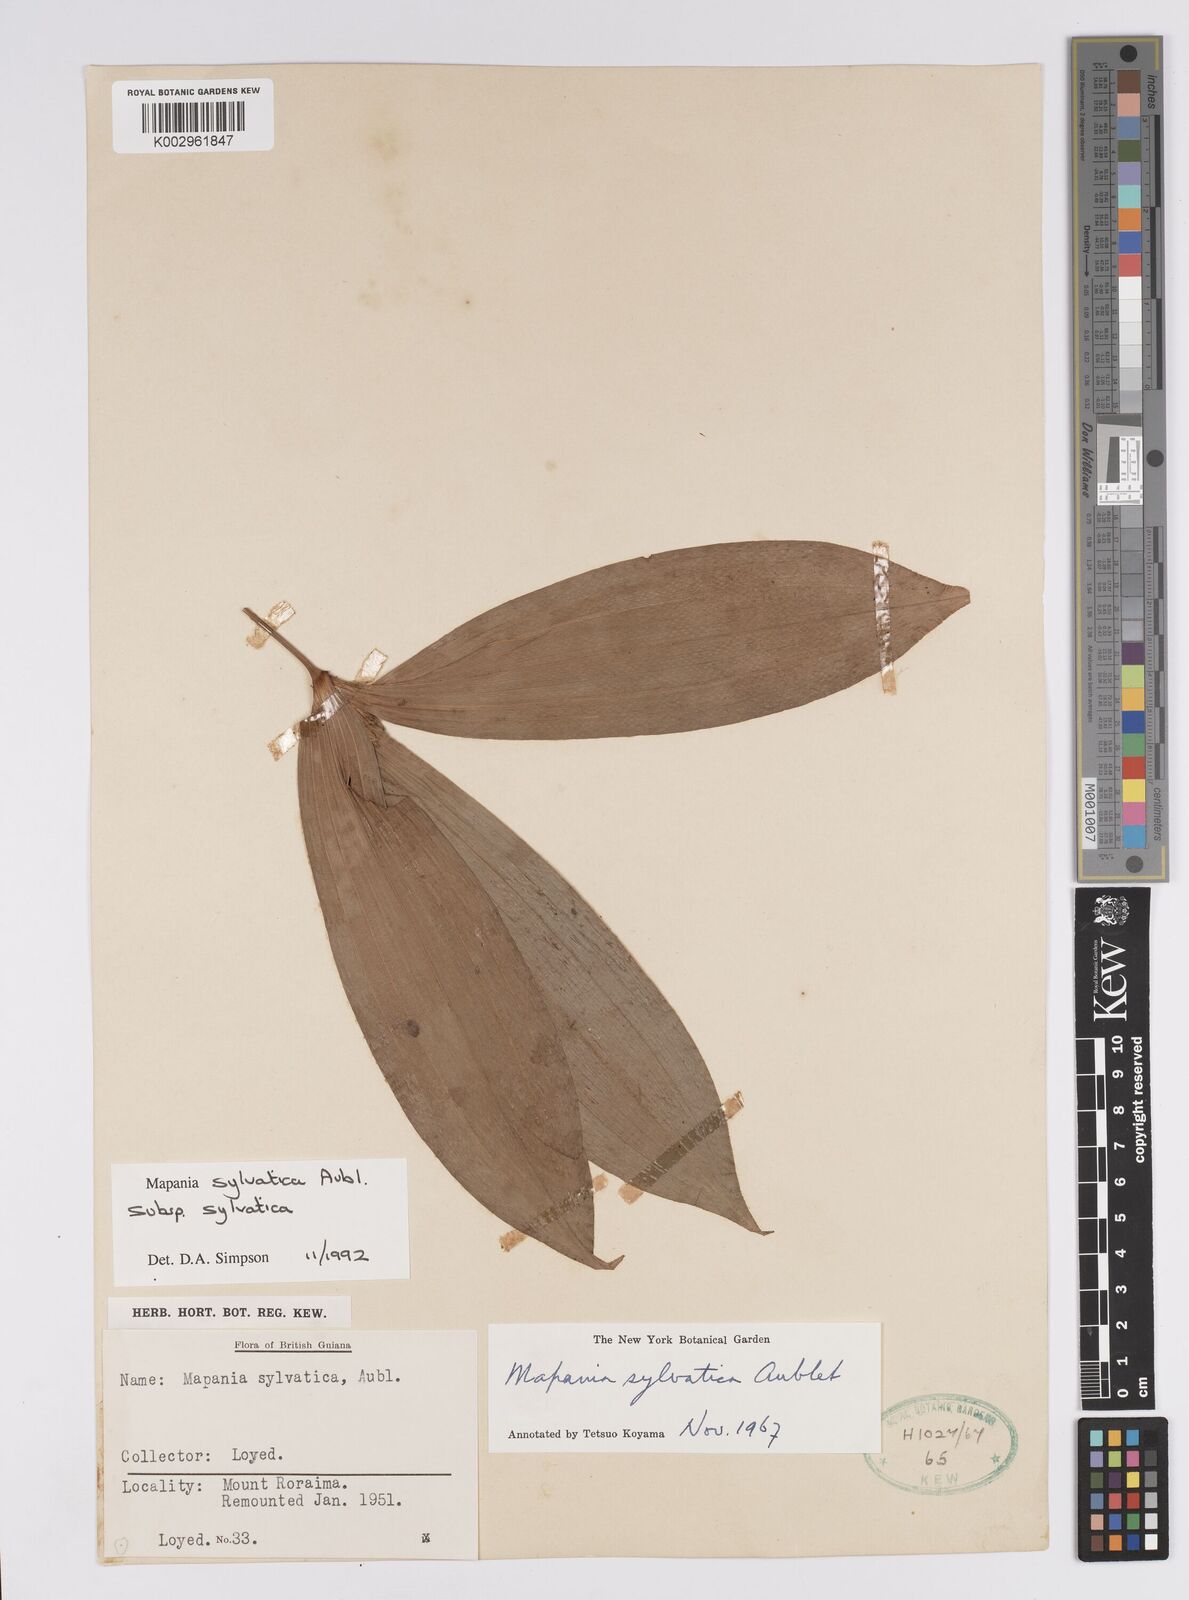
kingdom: Plantae
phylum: Tracheophyta
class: Liliopsida
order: Poales
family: Cyperaceae
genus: Mapania
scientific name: Mapania sylvatica
